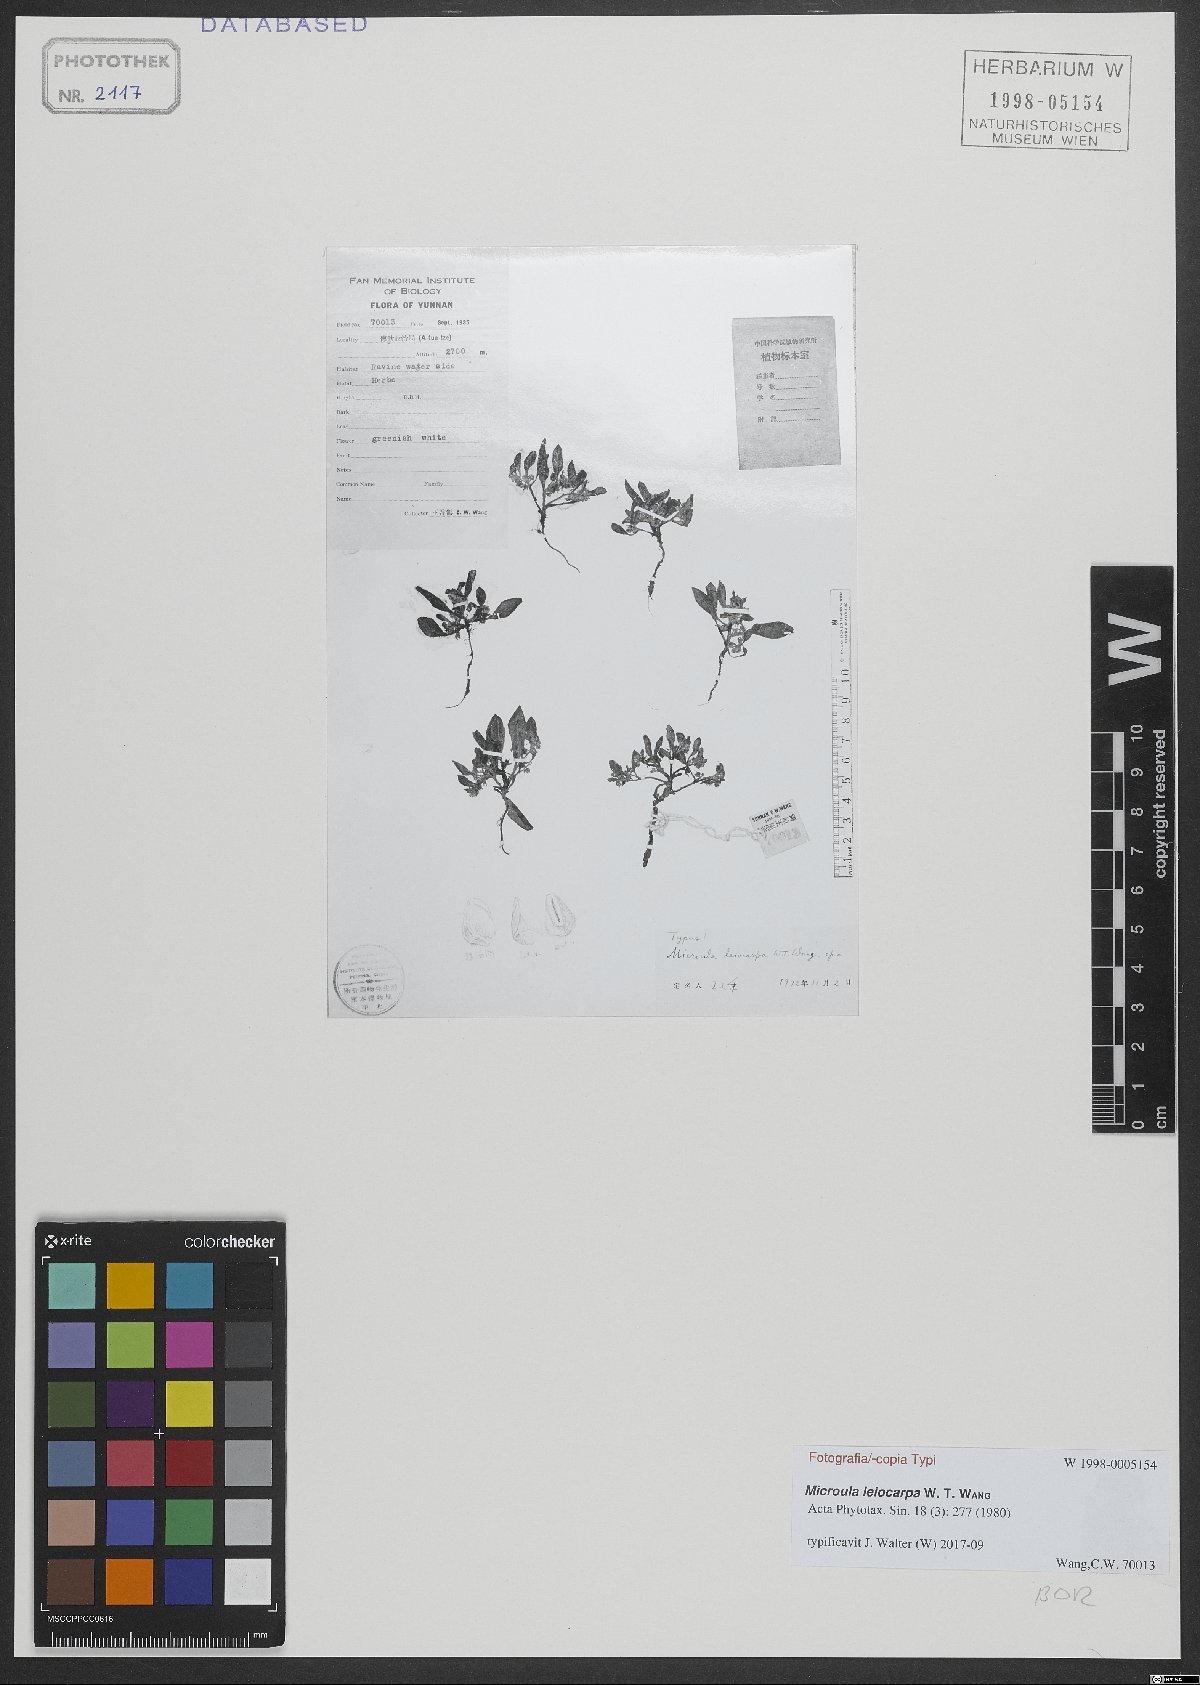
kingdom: Plantae
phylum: Tracheophyta
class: Magnoliopsida
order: Boraginales
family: Boraginaceae
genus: Microula
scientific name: Microula leiocarpa
